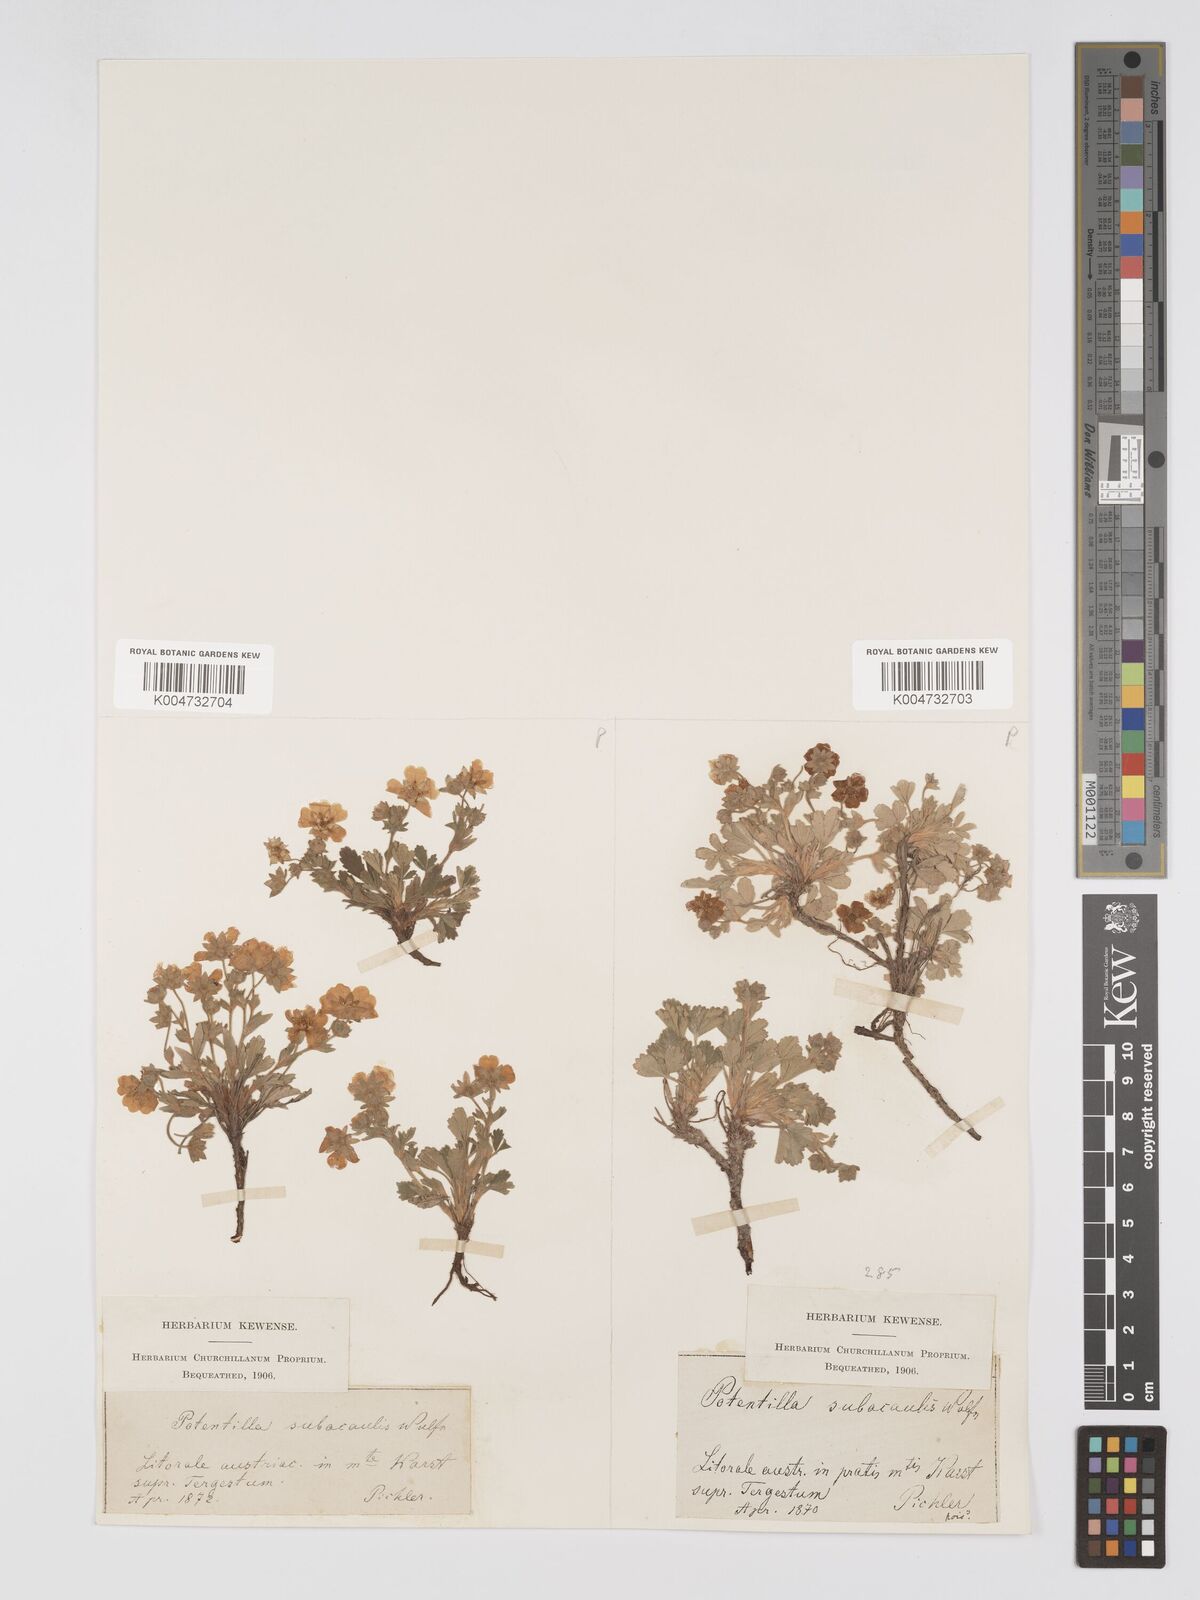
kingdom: Plantae
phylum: Tracheophyta
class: Magnoliopsida
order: Rosales
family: Rosaceae
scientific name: Rosaceae
